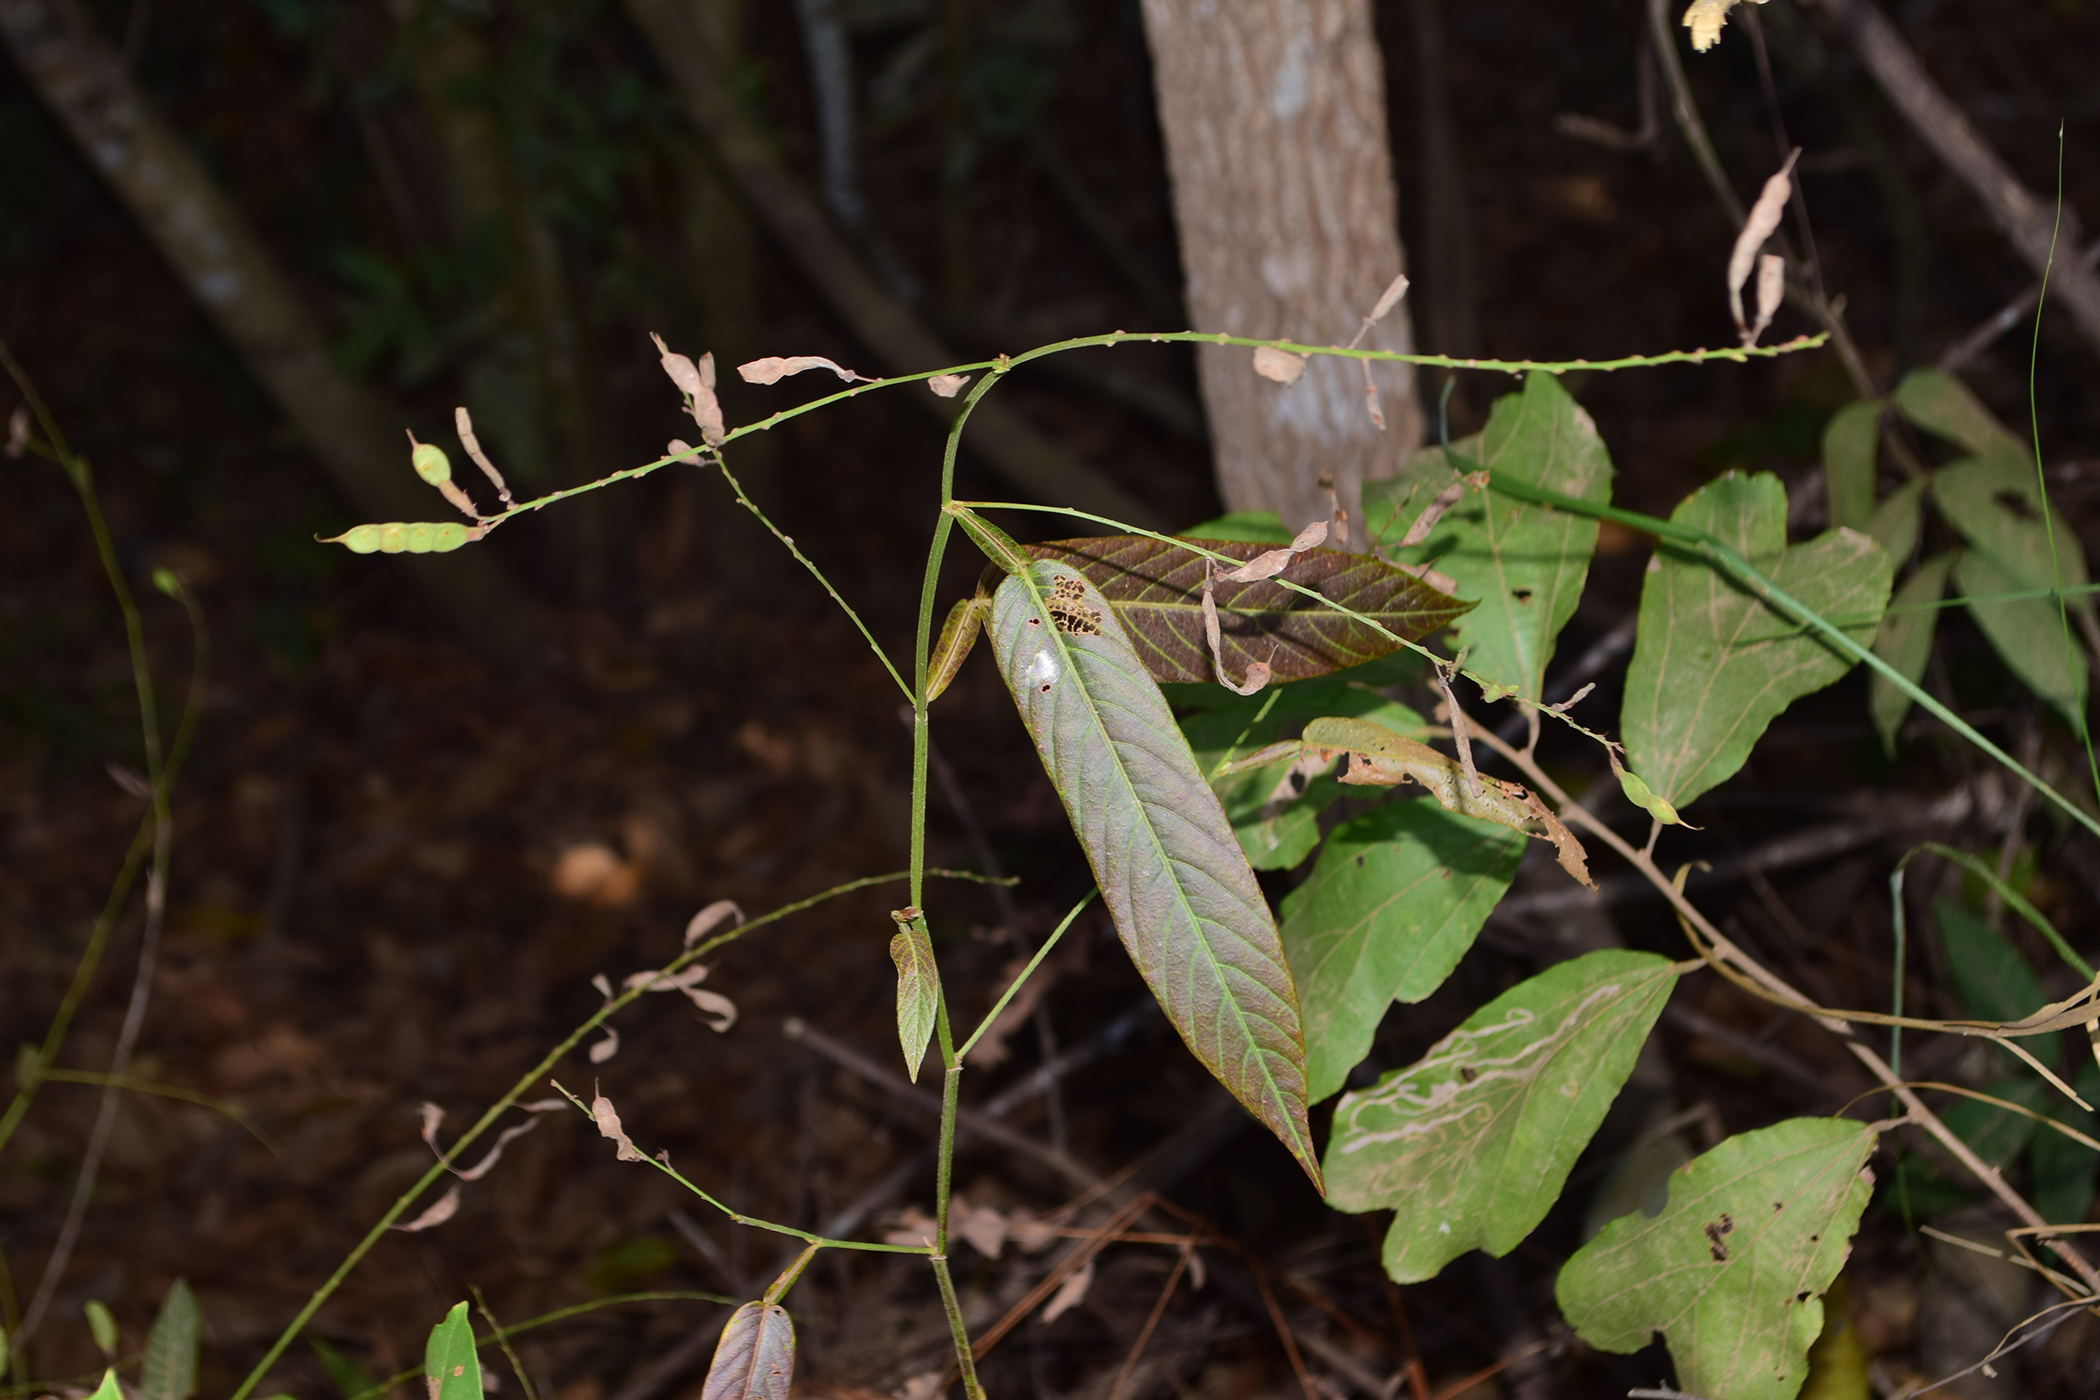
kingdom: Plantae
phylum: Tracheophyta
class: Magnoliopsida
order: Fabales
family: Fabaceae
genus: Tadehagi
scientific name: Tadehagi triquetrum
